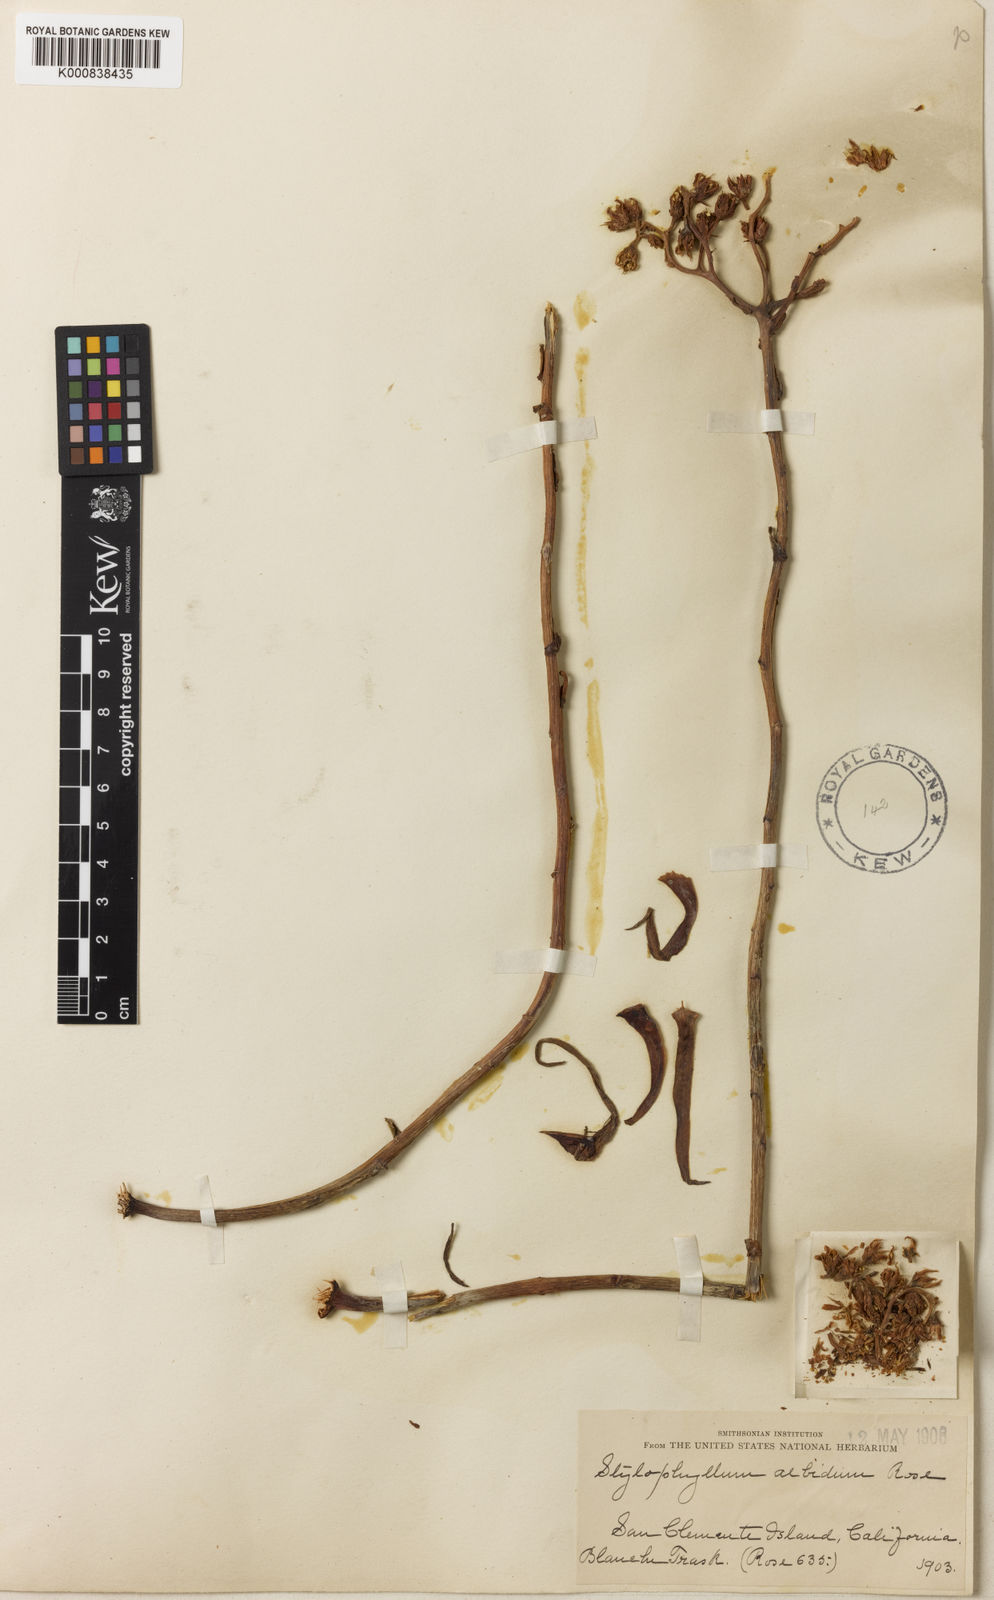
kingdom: Plantae
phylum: Tracheophyta
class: Magnoliopsida
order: Saxifragales
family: Crassulaceae
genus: Dudleya
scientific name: Dudleya
